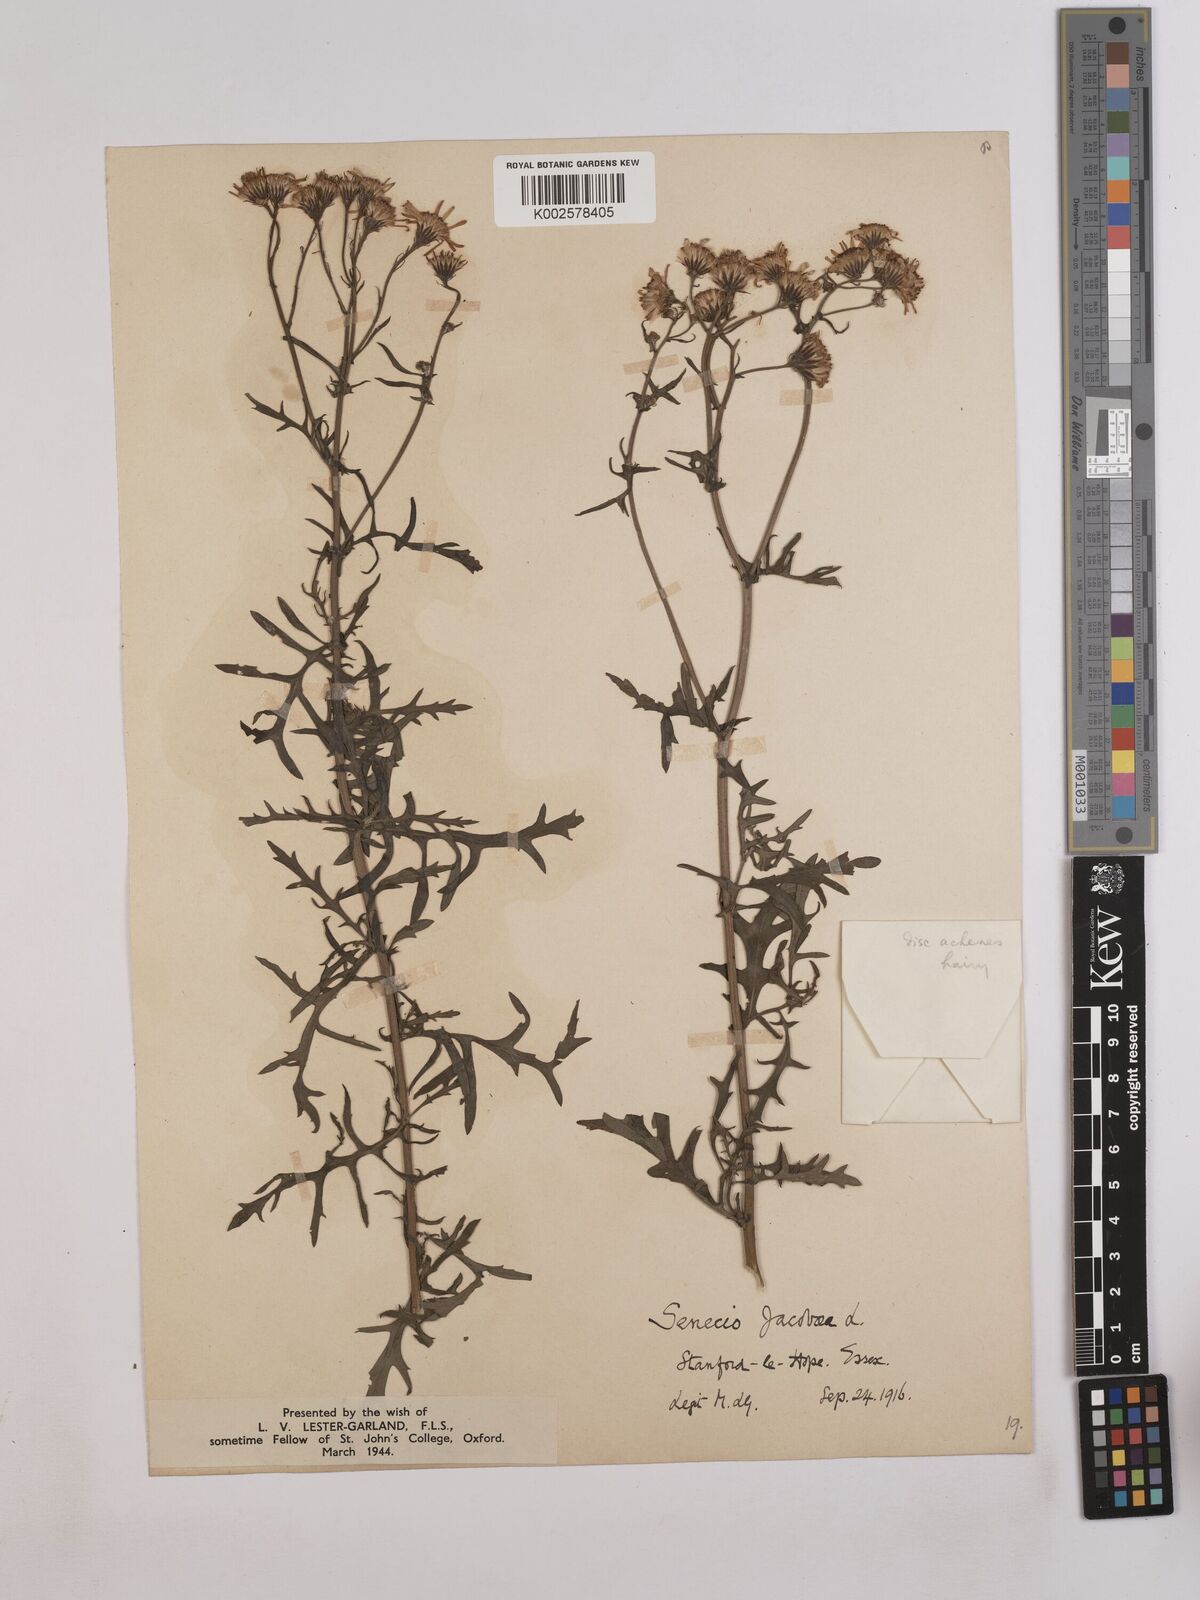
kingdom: Plantae
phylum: Tracheophyta
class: Magnoliopsida
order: Asterales
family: Asteraceae
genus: Jacobaea
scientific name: Jacobaea vulgaris
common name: Stinking willie
